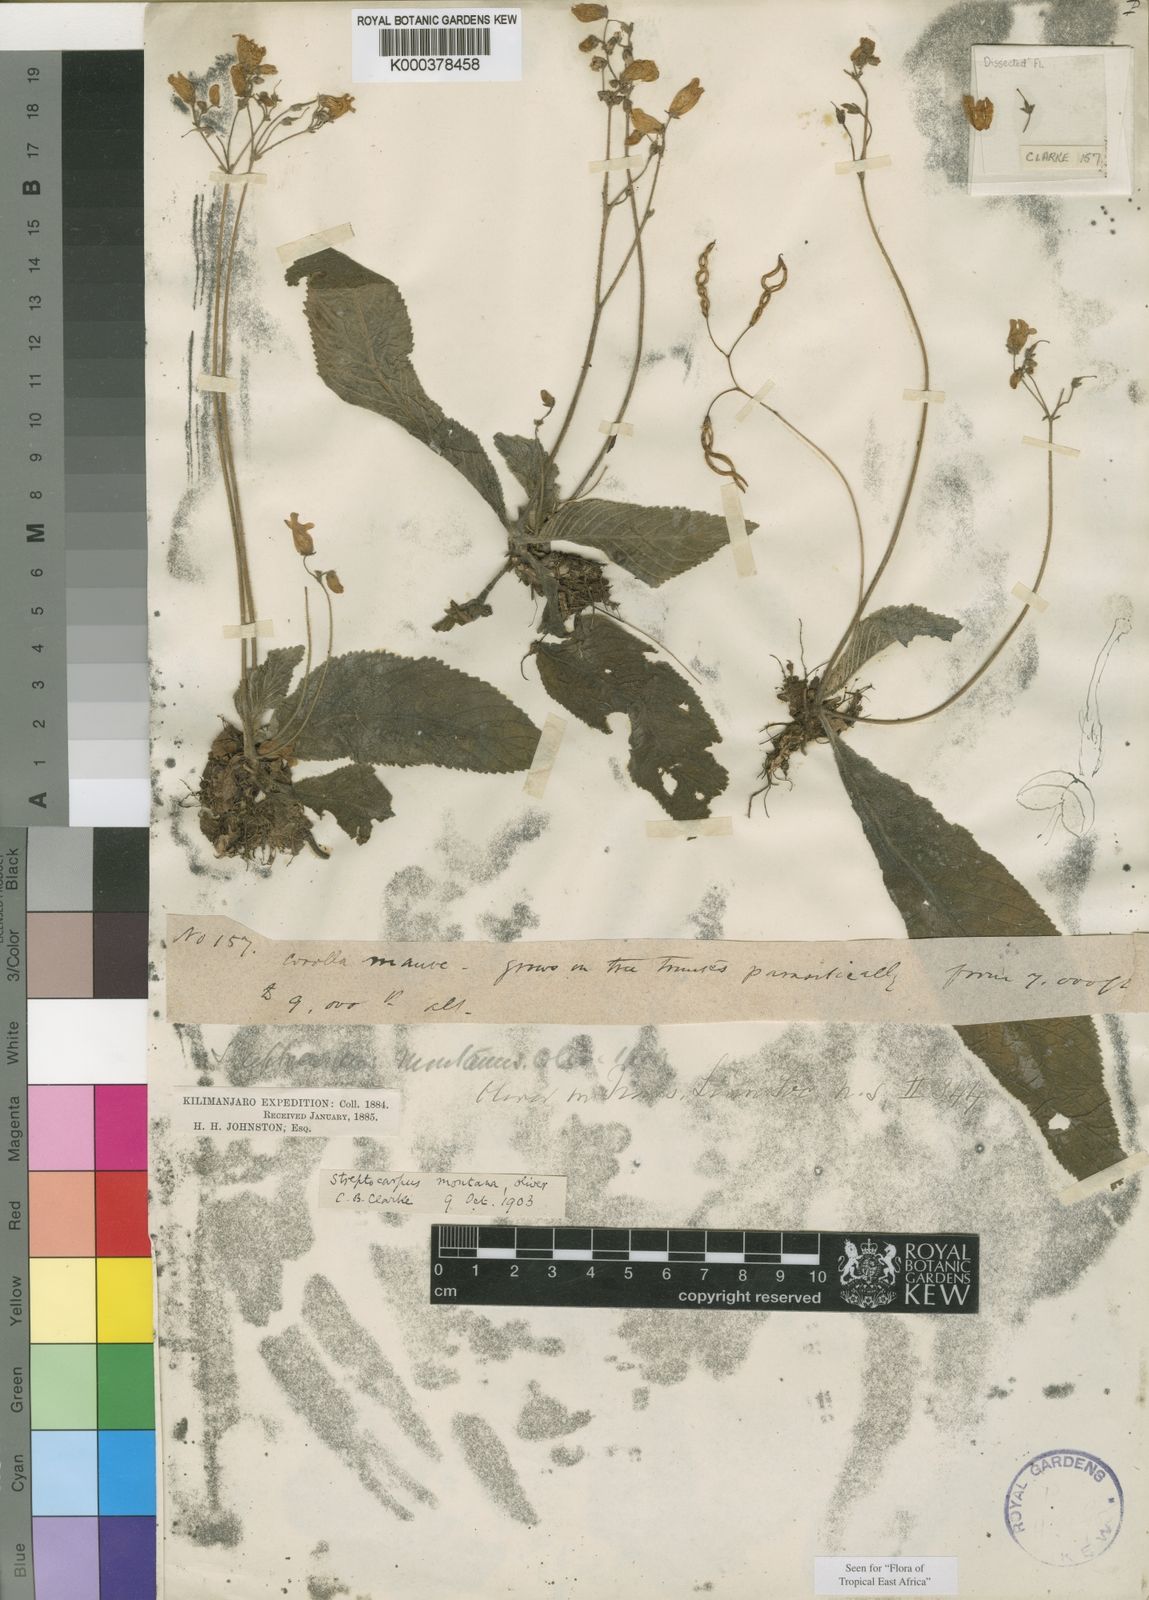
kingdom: Plantae
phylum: Tracheophyta
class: Magnoliopsida
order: Lamiales
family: Gesneriaceae
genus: Streptocarpus
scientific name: Streptocarpus montanus
